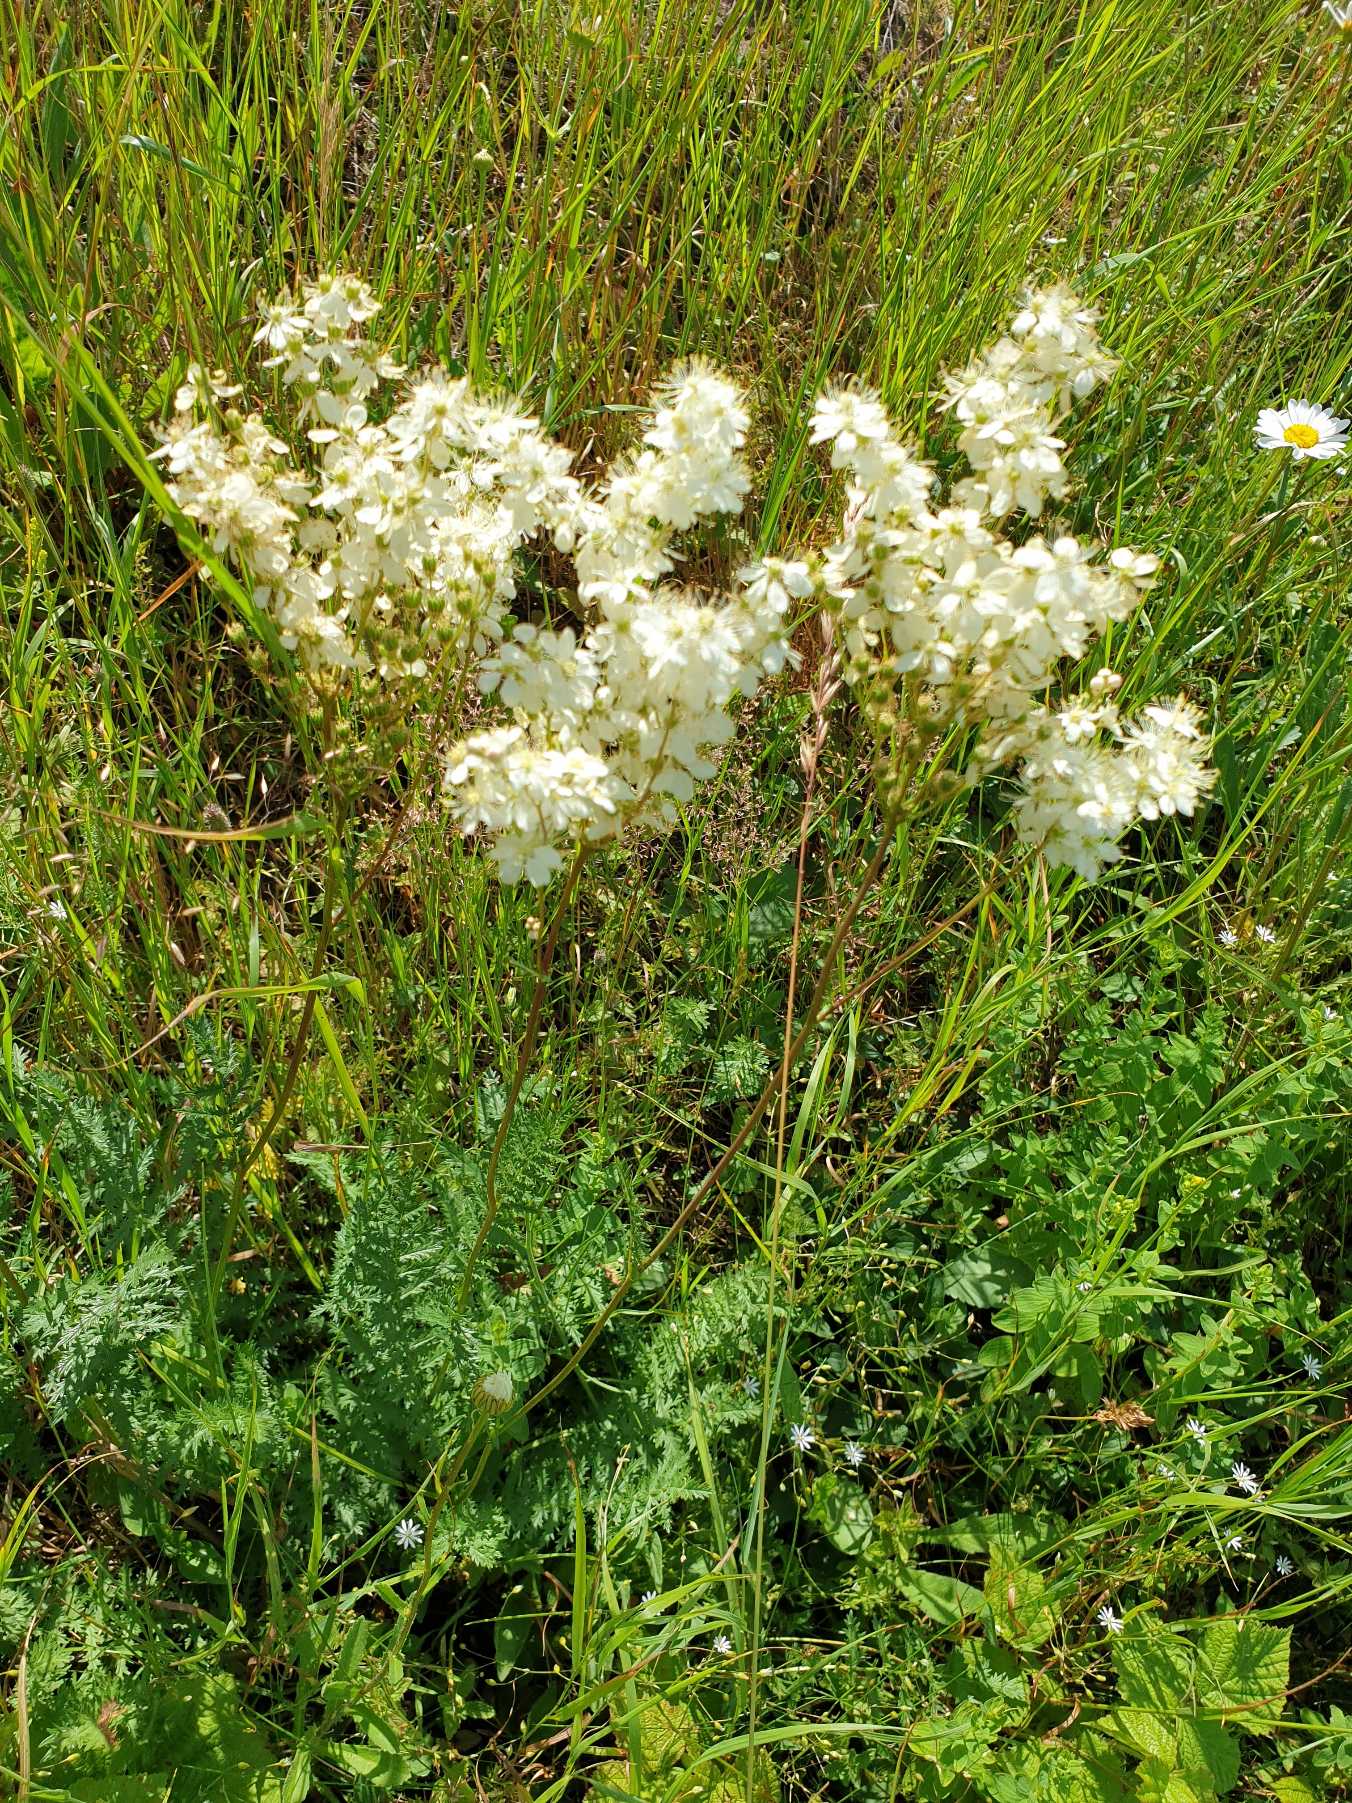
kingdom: Plantae
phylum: Tracheophyta
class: Magnoliopsida
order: Rosales
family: Rosaceae
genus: Filipendula
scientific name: Filipendula vulgaris
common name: Knoldet mjødurt
